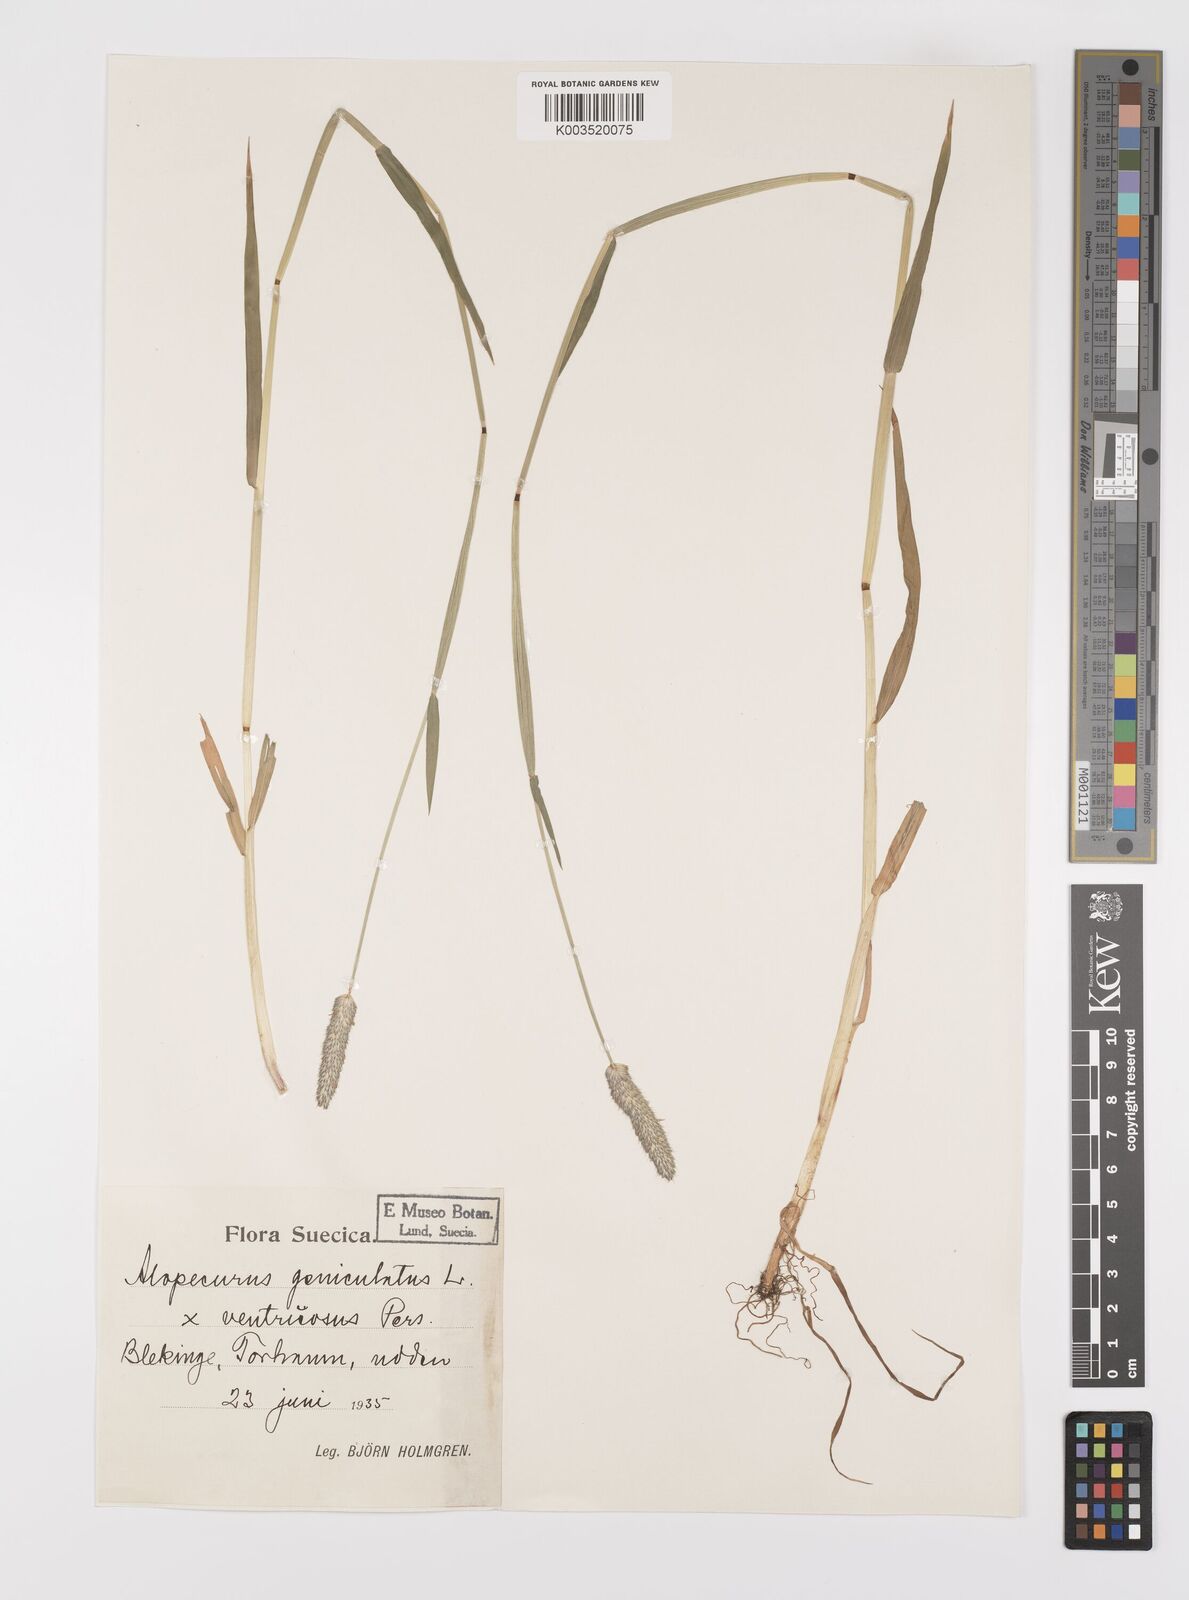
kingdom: Plantae
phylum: Tracheophyta
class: Liliopsida
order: Poales
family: Poaceae
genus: Alopecurus
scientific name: Alopecurus arundinaceus
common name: Creeping meadow foxtail
